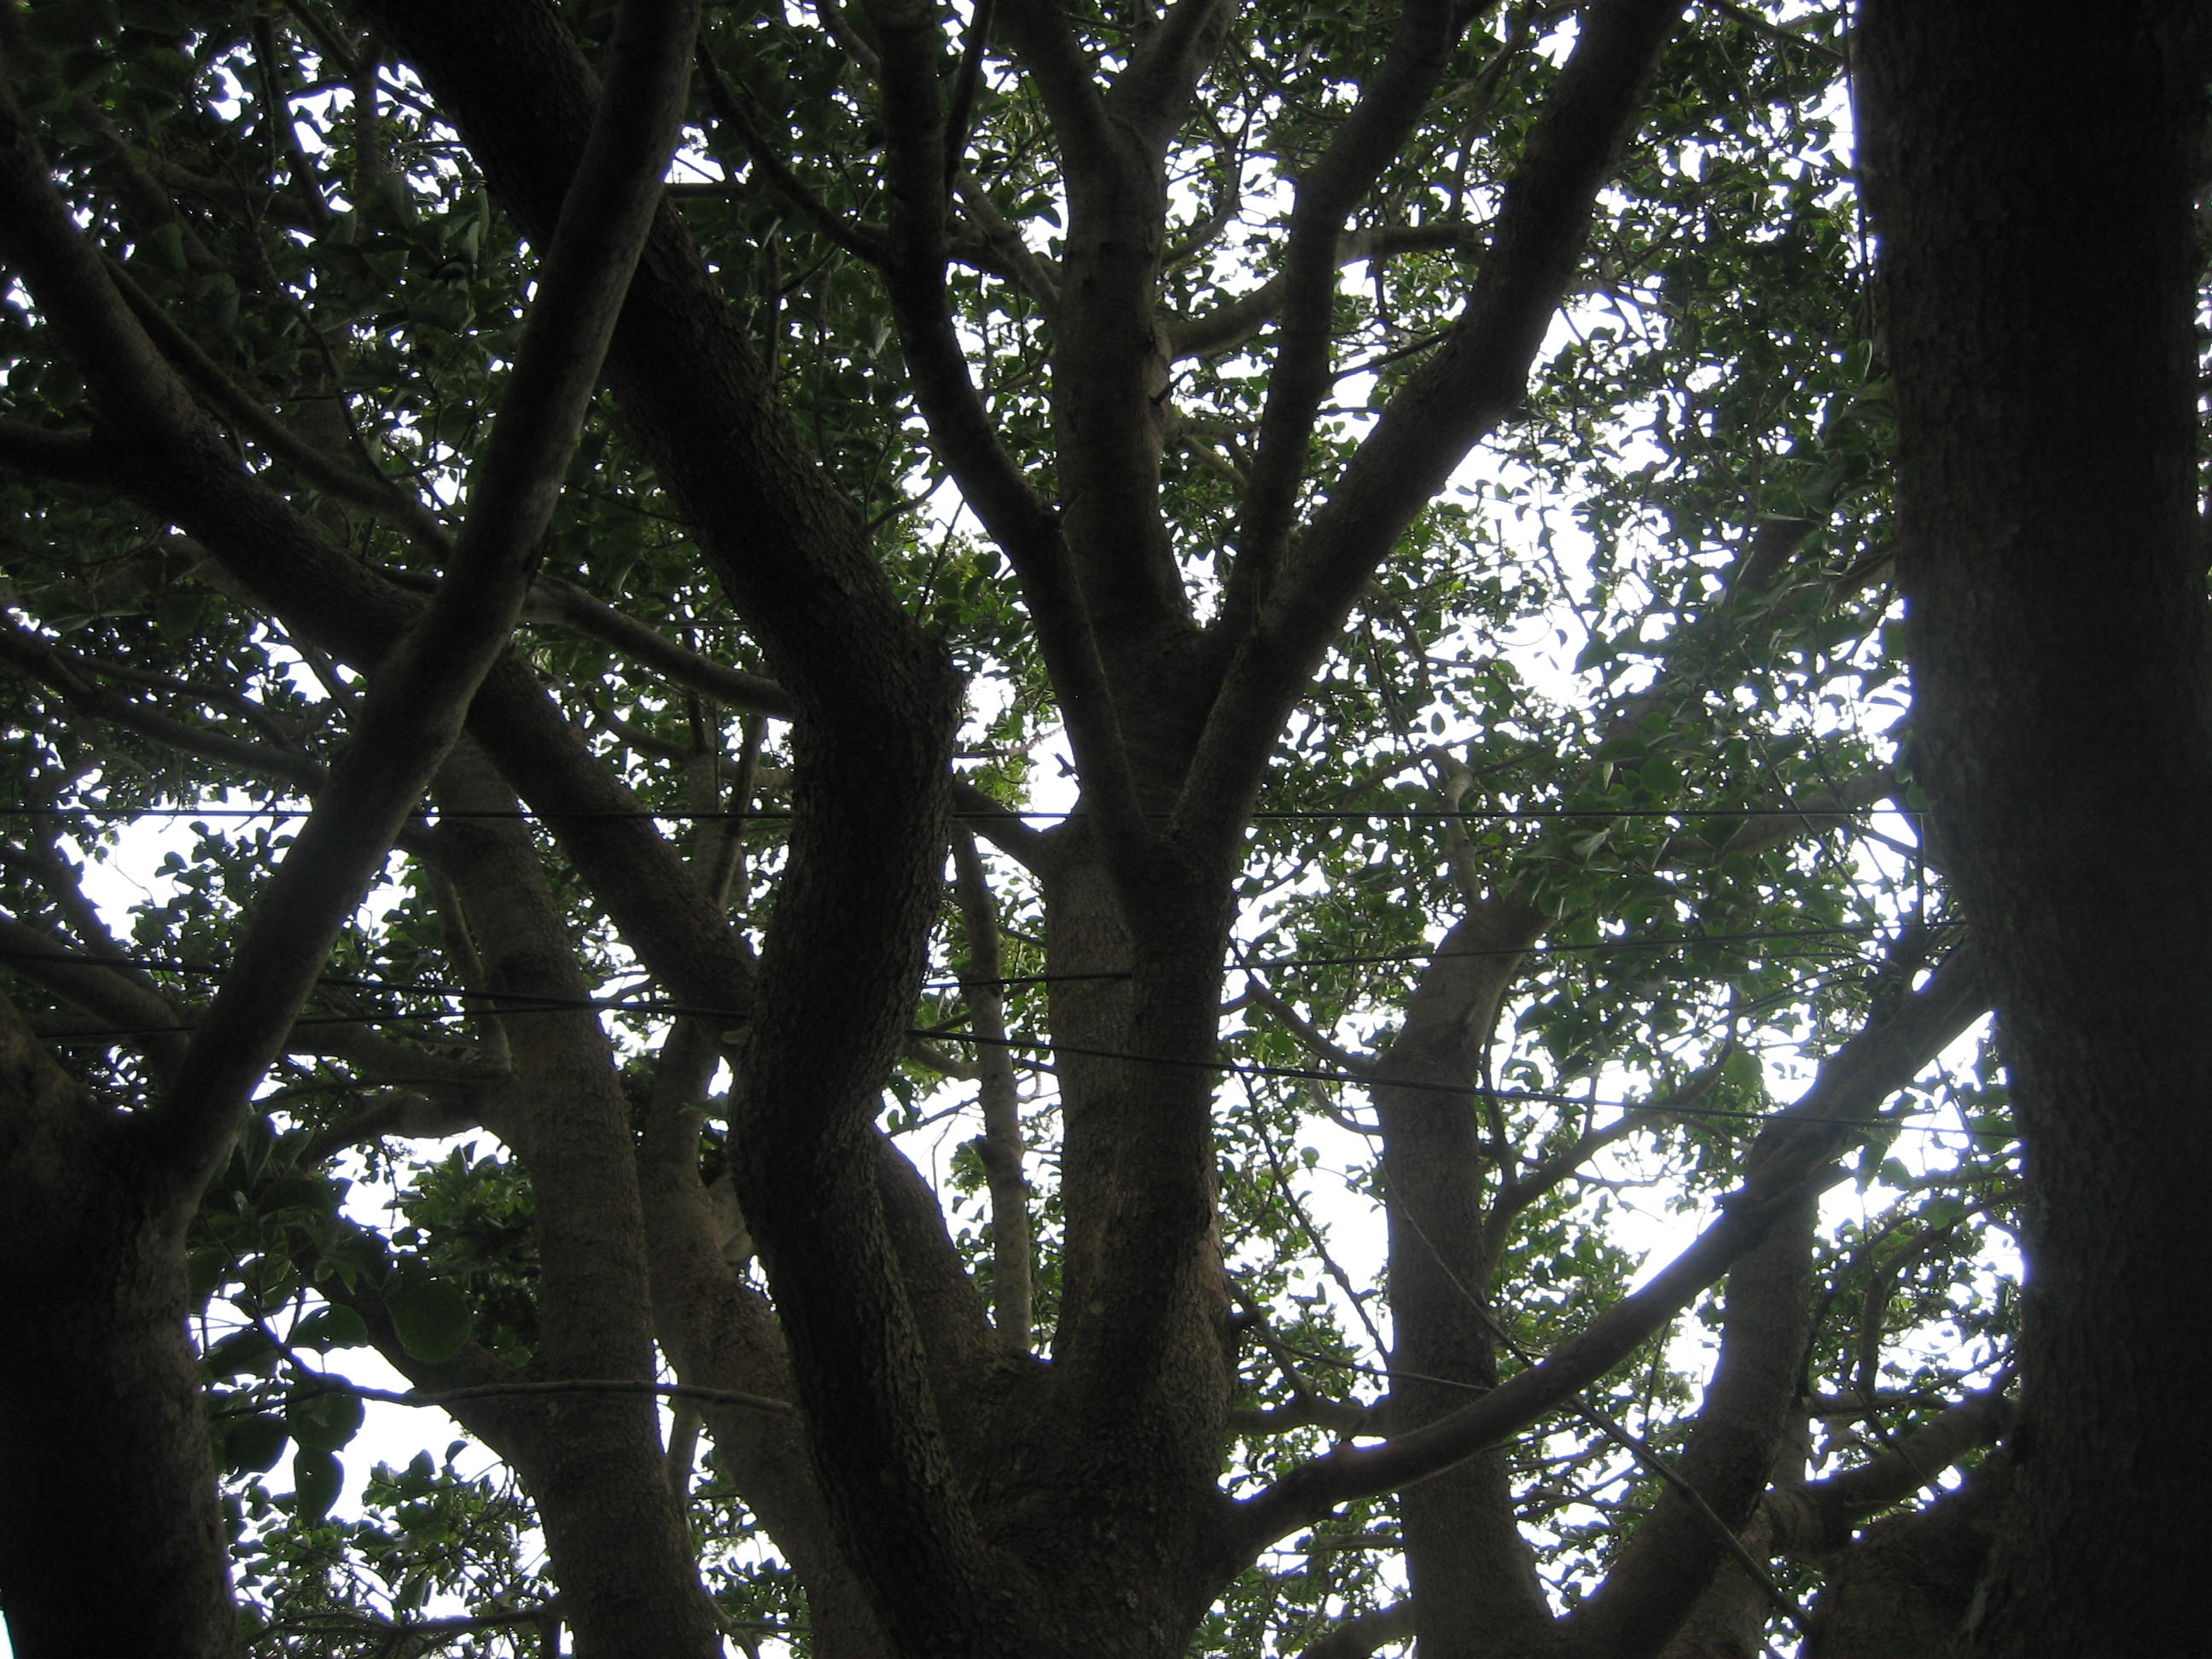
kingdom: Plantae
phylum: Tracheophyta
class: Magnoliopsida
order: Malpighiales
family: Phyllanthaceae
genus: Bischofia
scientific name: Bischofia javanica
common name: Javanese bishopwood
